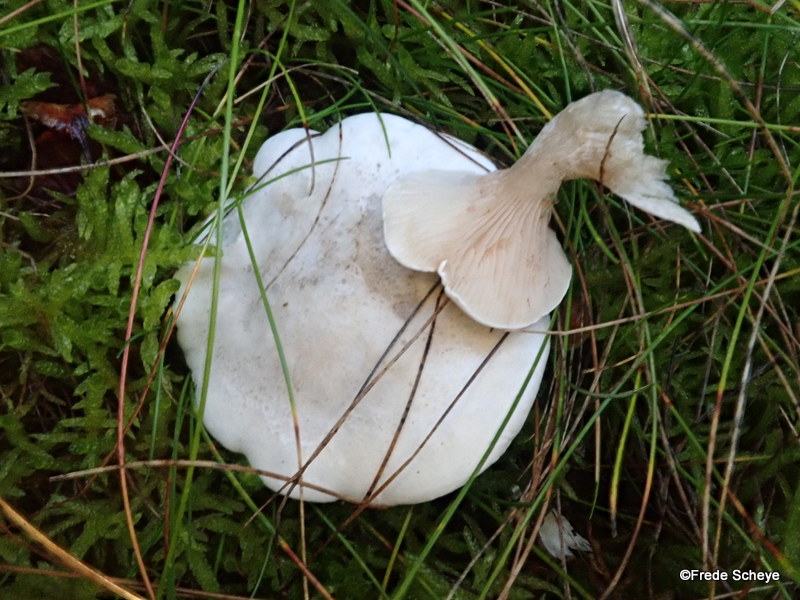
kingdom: Fungi
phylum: Basidiomycota
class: Agaricomycetes
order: Agaricales
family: Entolomataceae
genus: Clitopilus
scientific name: Clitopilus prunulus
